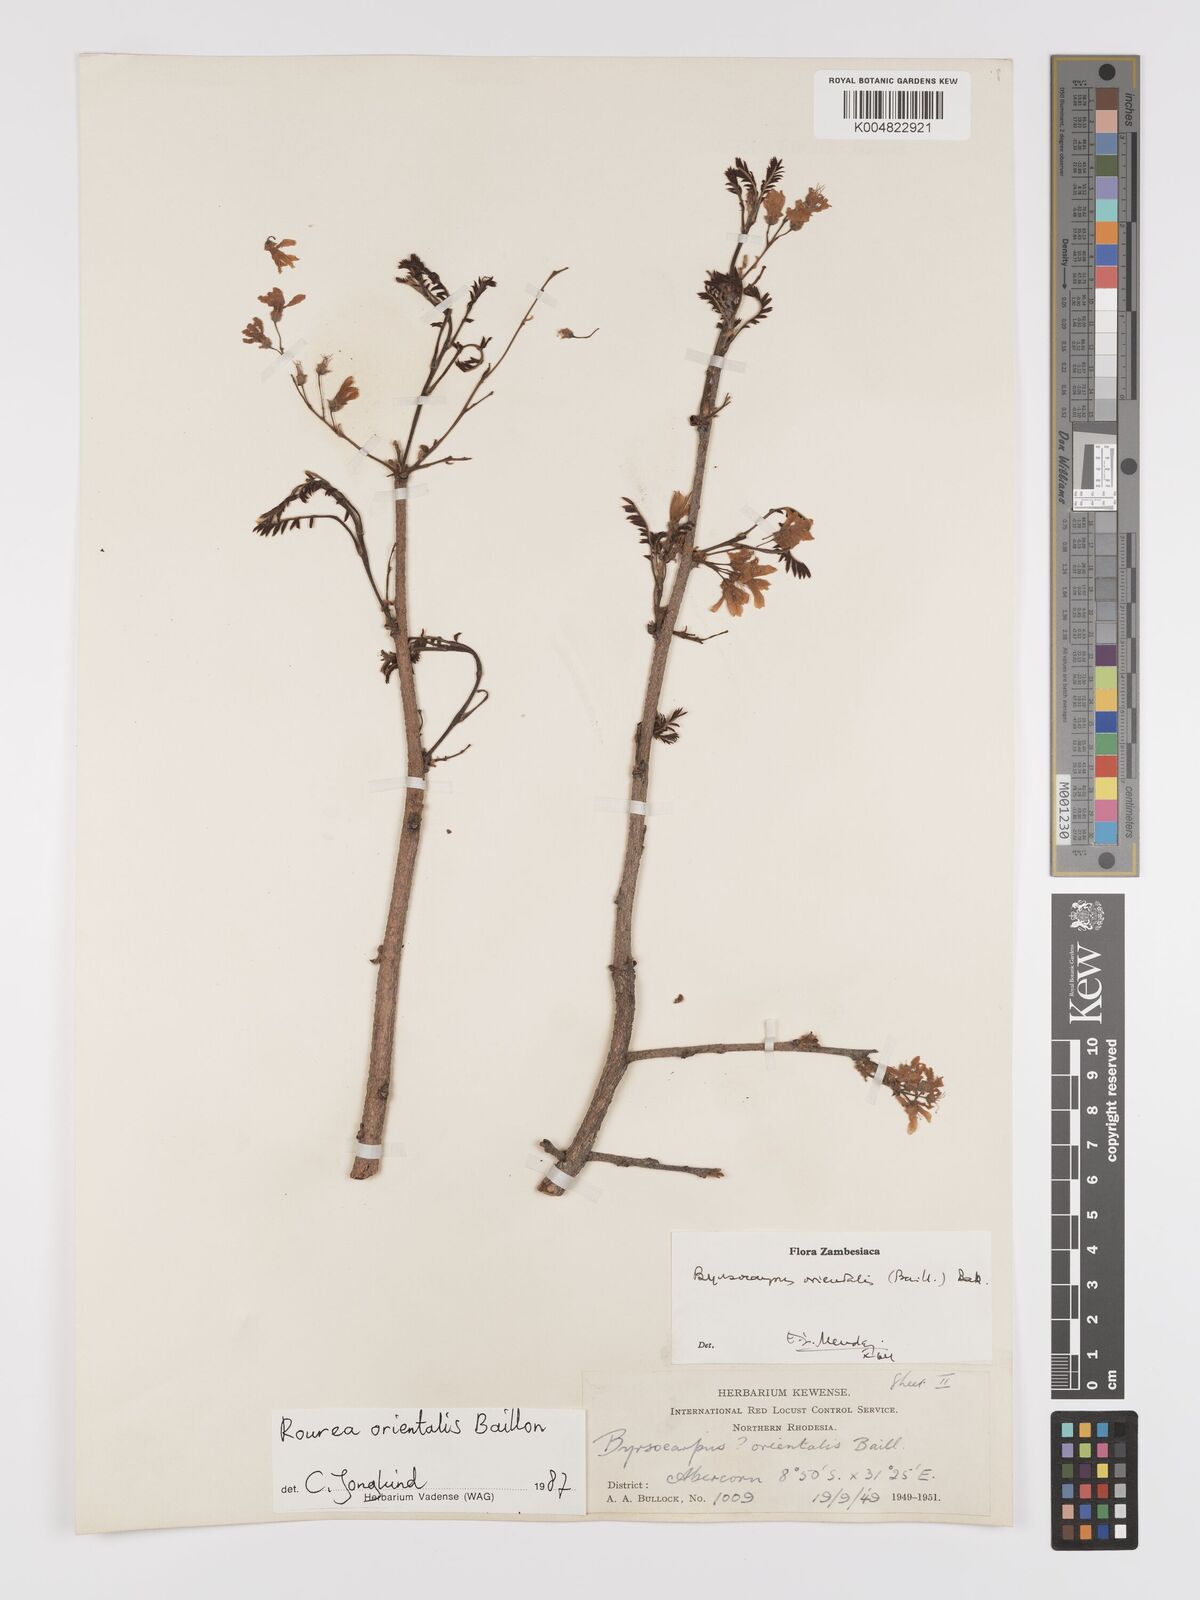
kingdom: Plantae
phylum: Tracheophyta
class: Magnoliopsida
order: Oxalidales
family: Connaraceae
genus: Rourea
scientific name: Rourea orientalis
